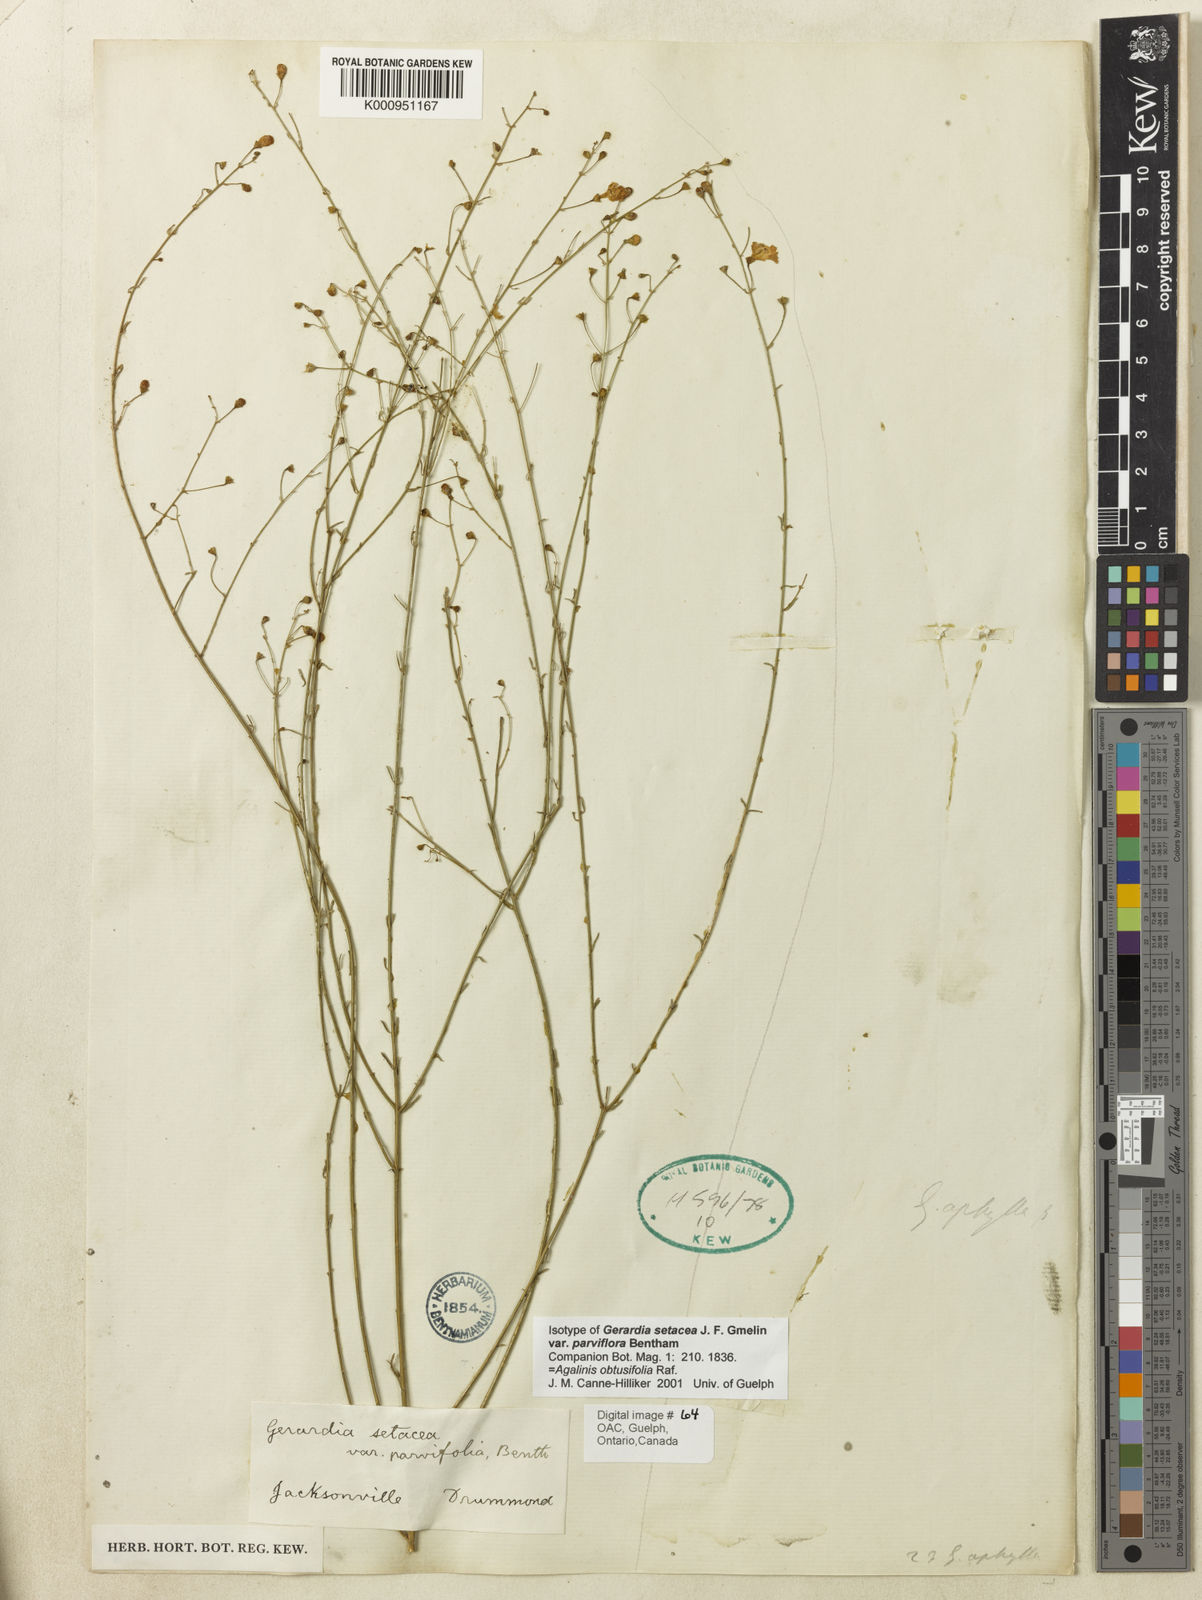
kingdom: Plantae
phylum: Tracheophyta
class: Magnoliopsida
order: Lamiales
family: Orobanchaceae
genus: Agalinis
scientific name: Agalinis obtusifolia
